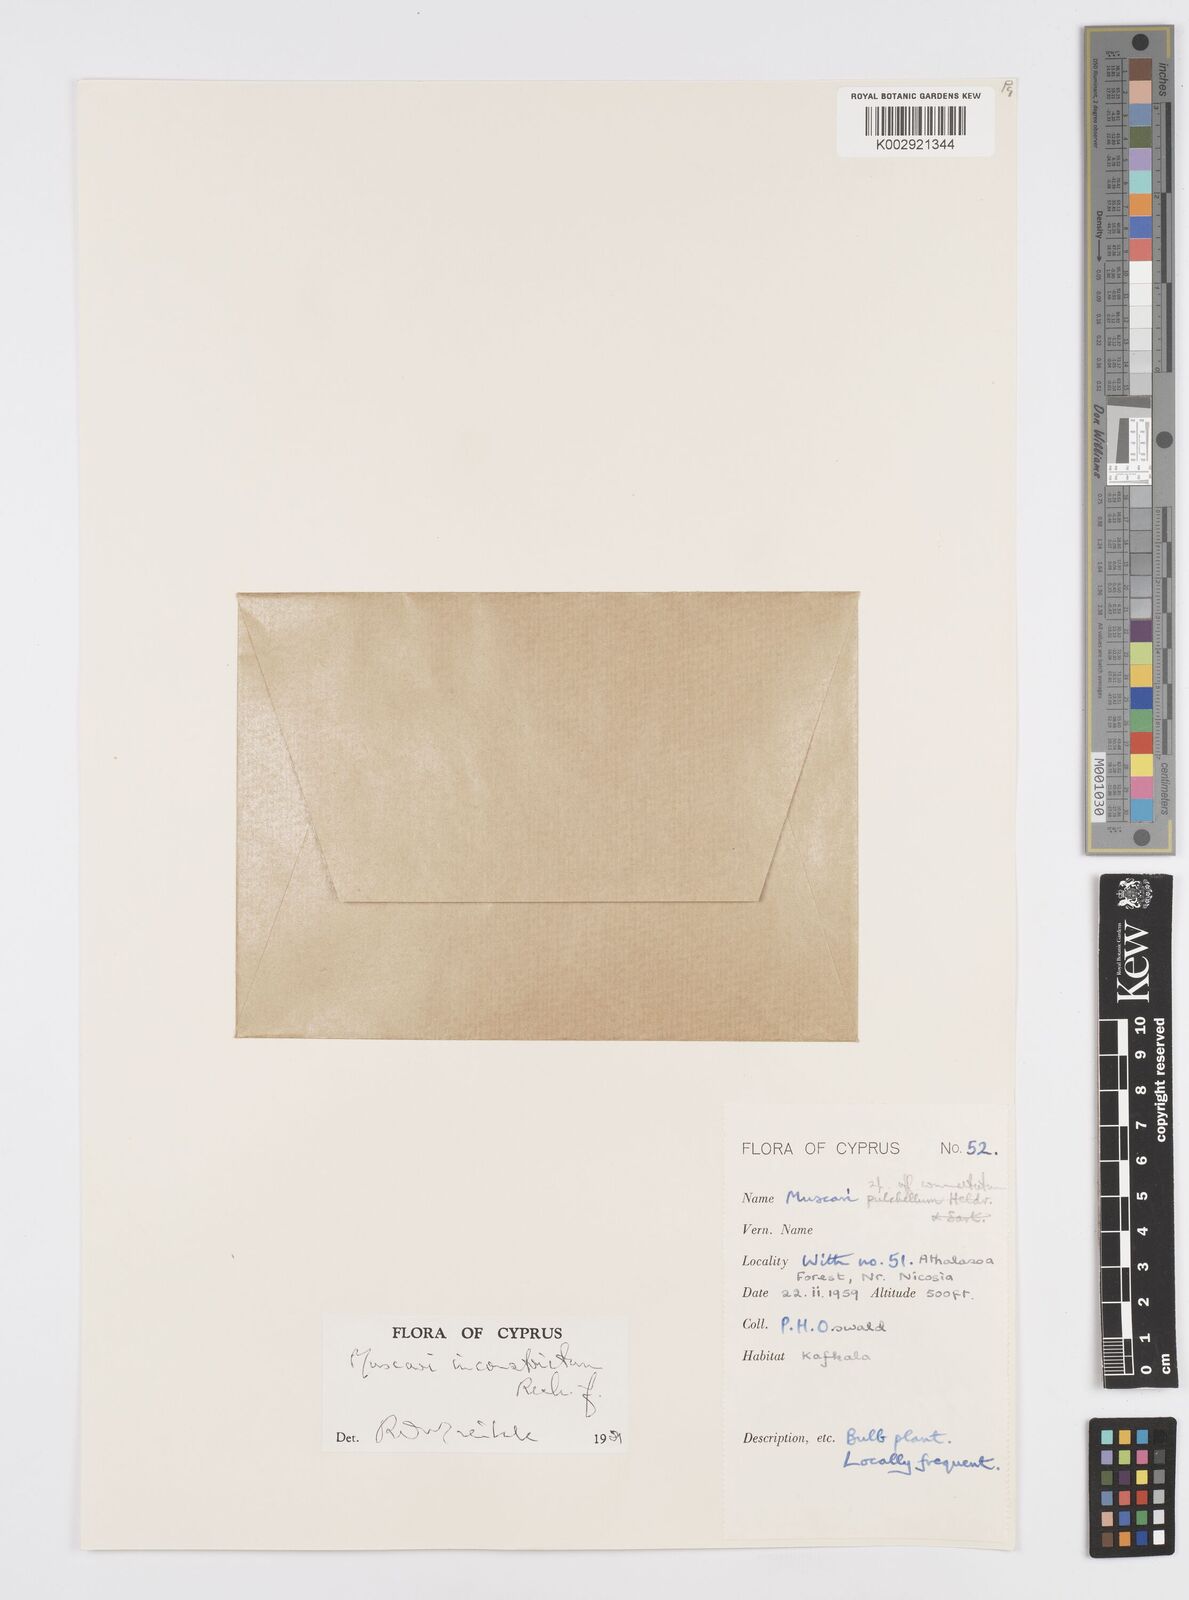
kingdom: Plantae
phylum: Tracheophyta
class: Liliopsida
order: Asparagales
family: Asparagaceae
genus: Muscari
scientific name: Muscari inconstrictum
